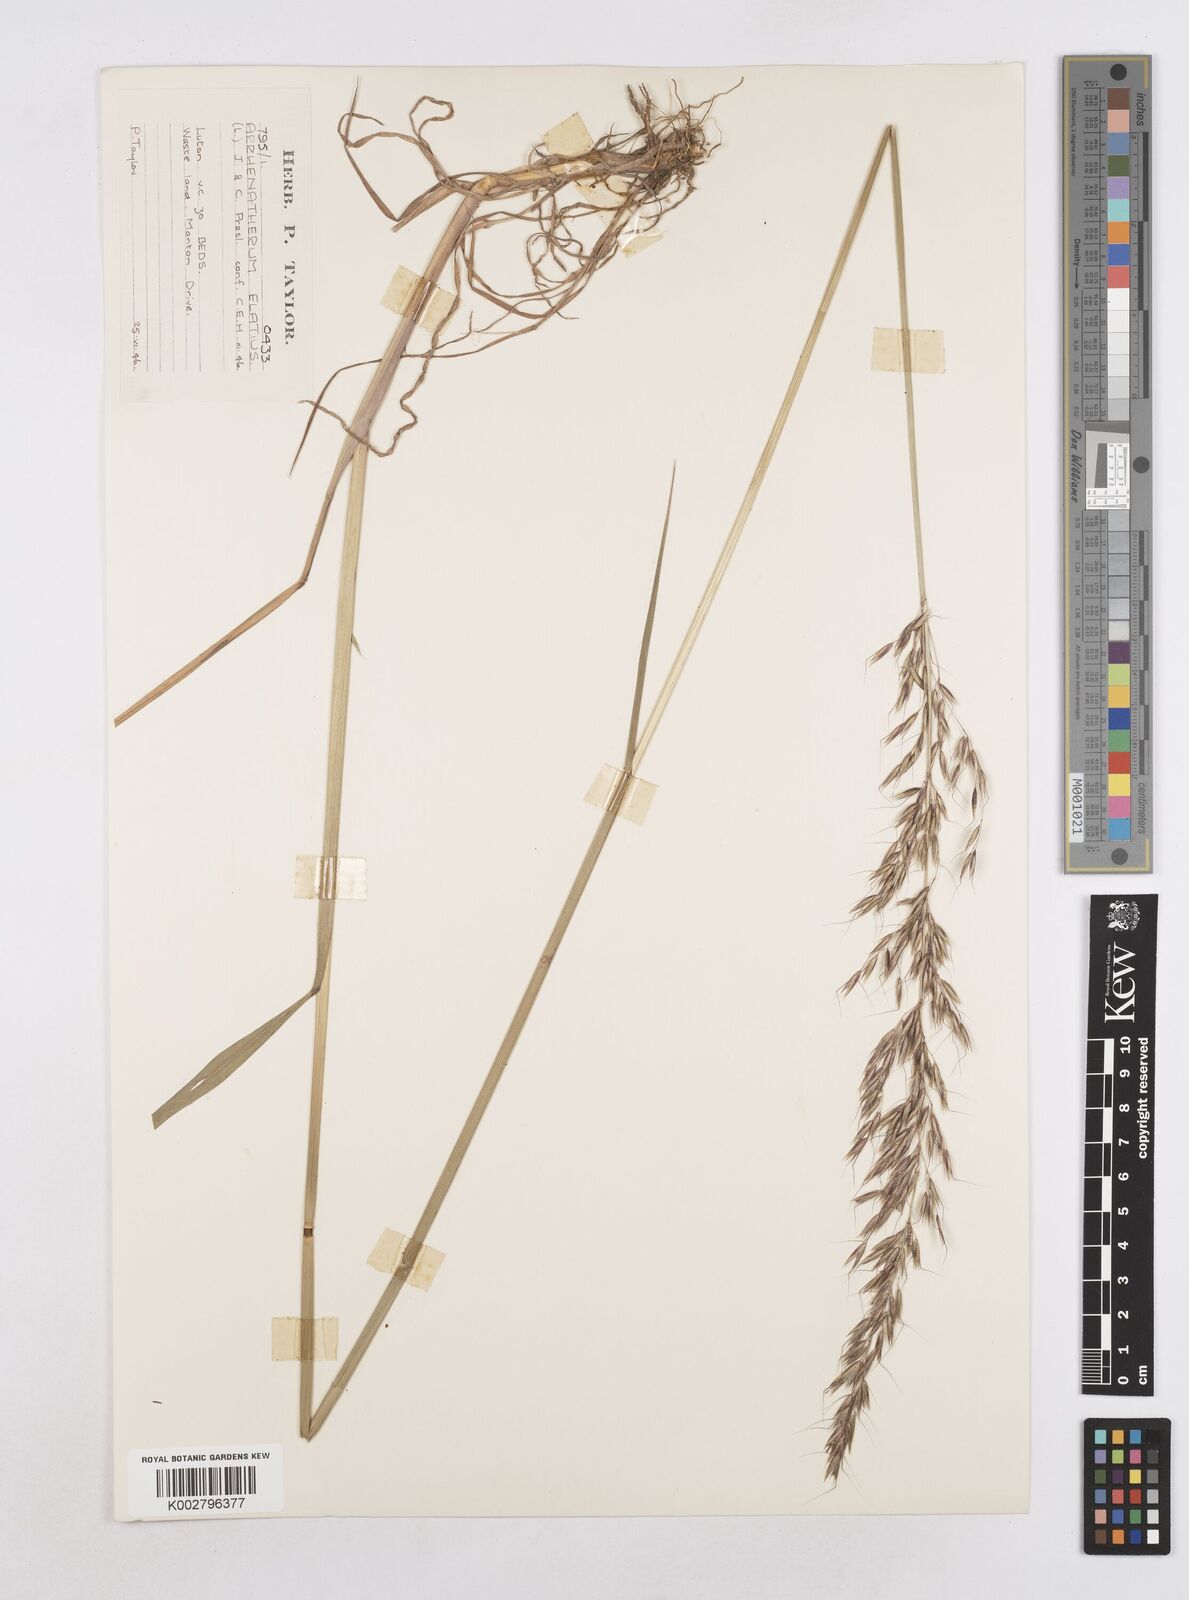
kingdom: Plantae
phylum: Tracheophyta
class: Liliopsida
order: Poales
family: Poaceae
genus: Arrhenatherum
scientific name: Arrhenatherum elatius
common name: Tall oatgrass
